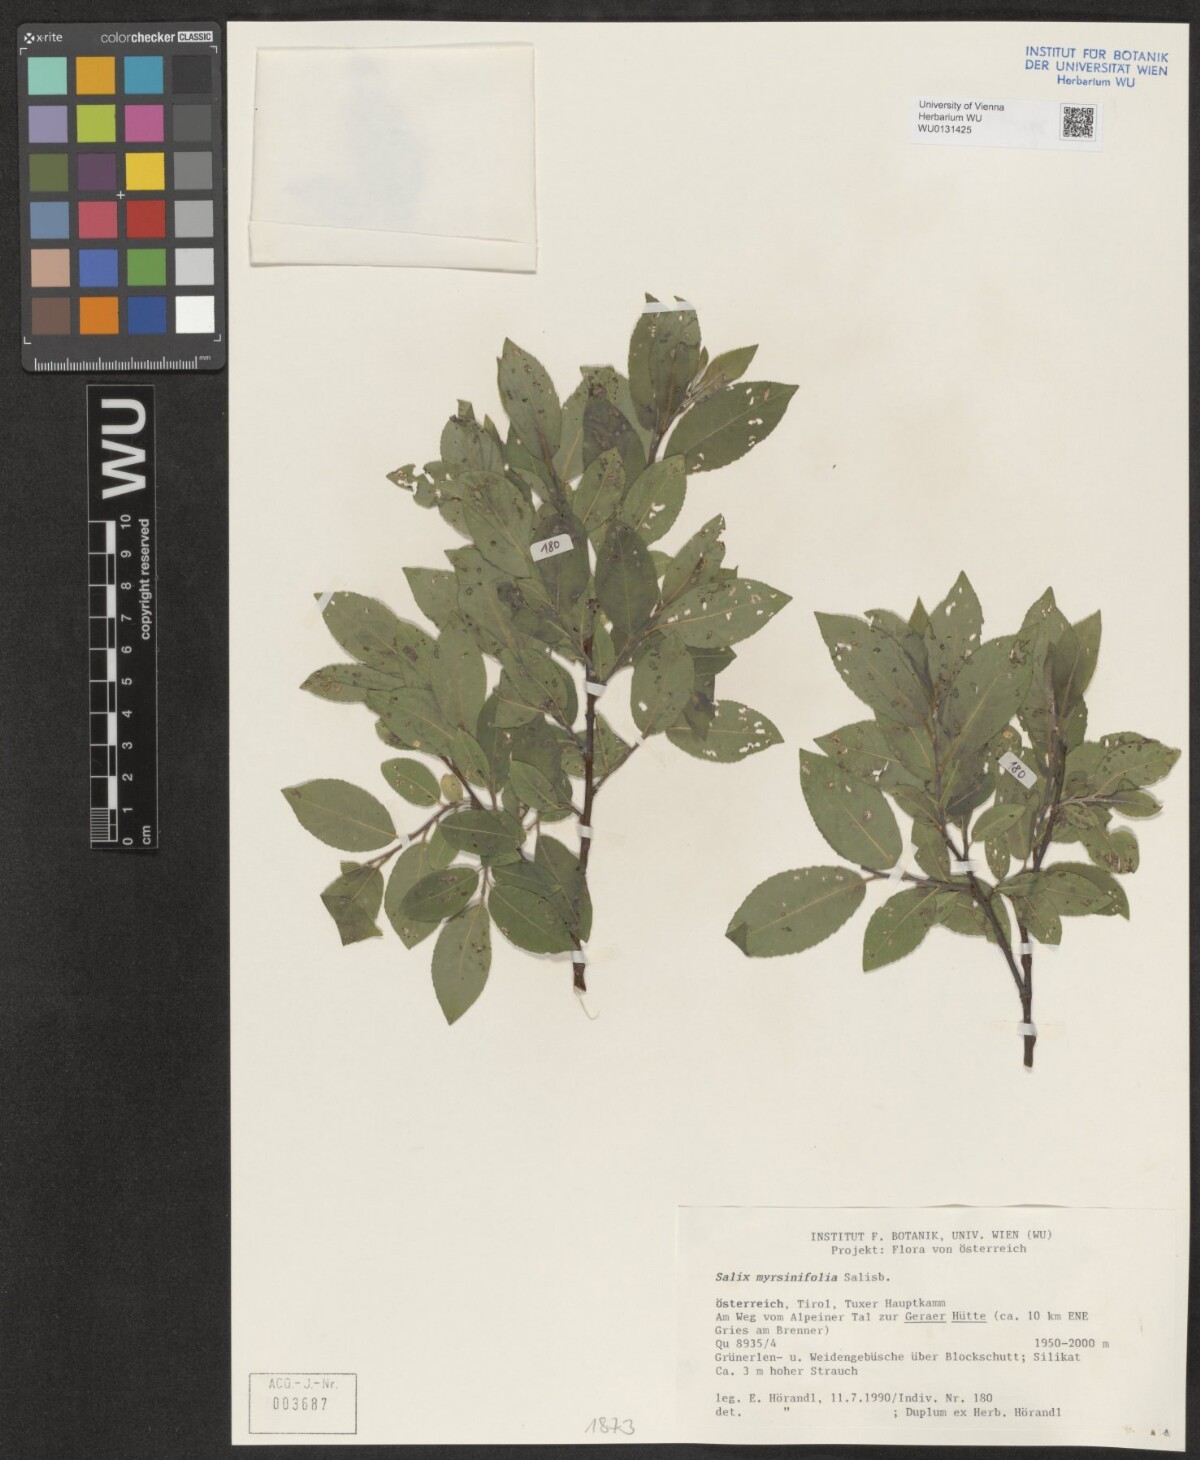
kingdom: Plantae
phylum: Tracheophyta
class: Magnoliopsida
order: Malpighiales
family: Salicaceae
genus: Salix
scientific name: Salix myrsinifolia
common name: Dark-leaved willow
